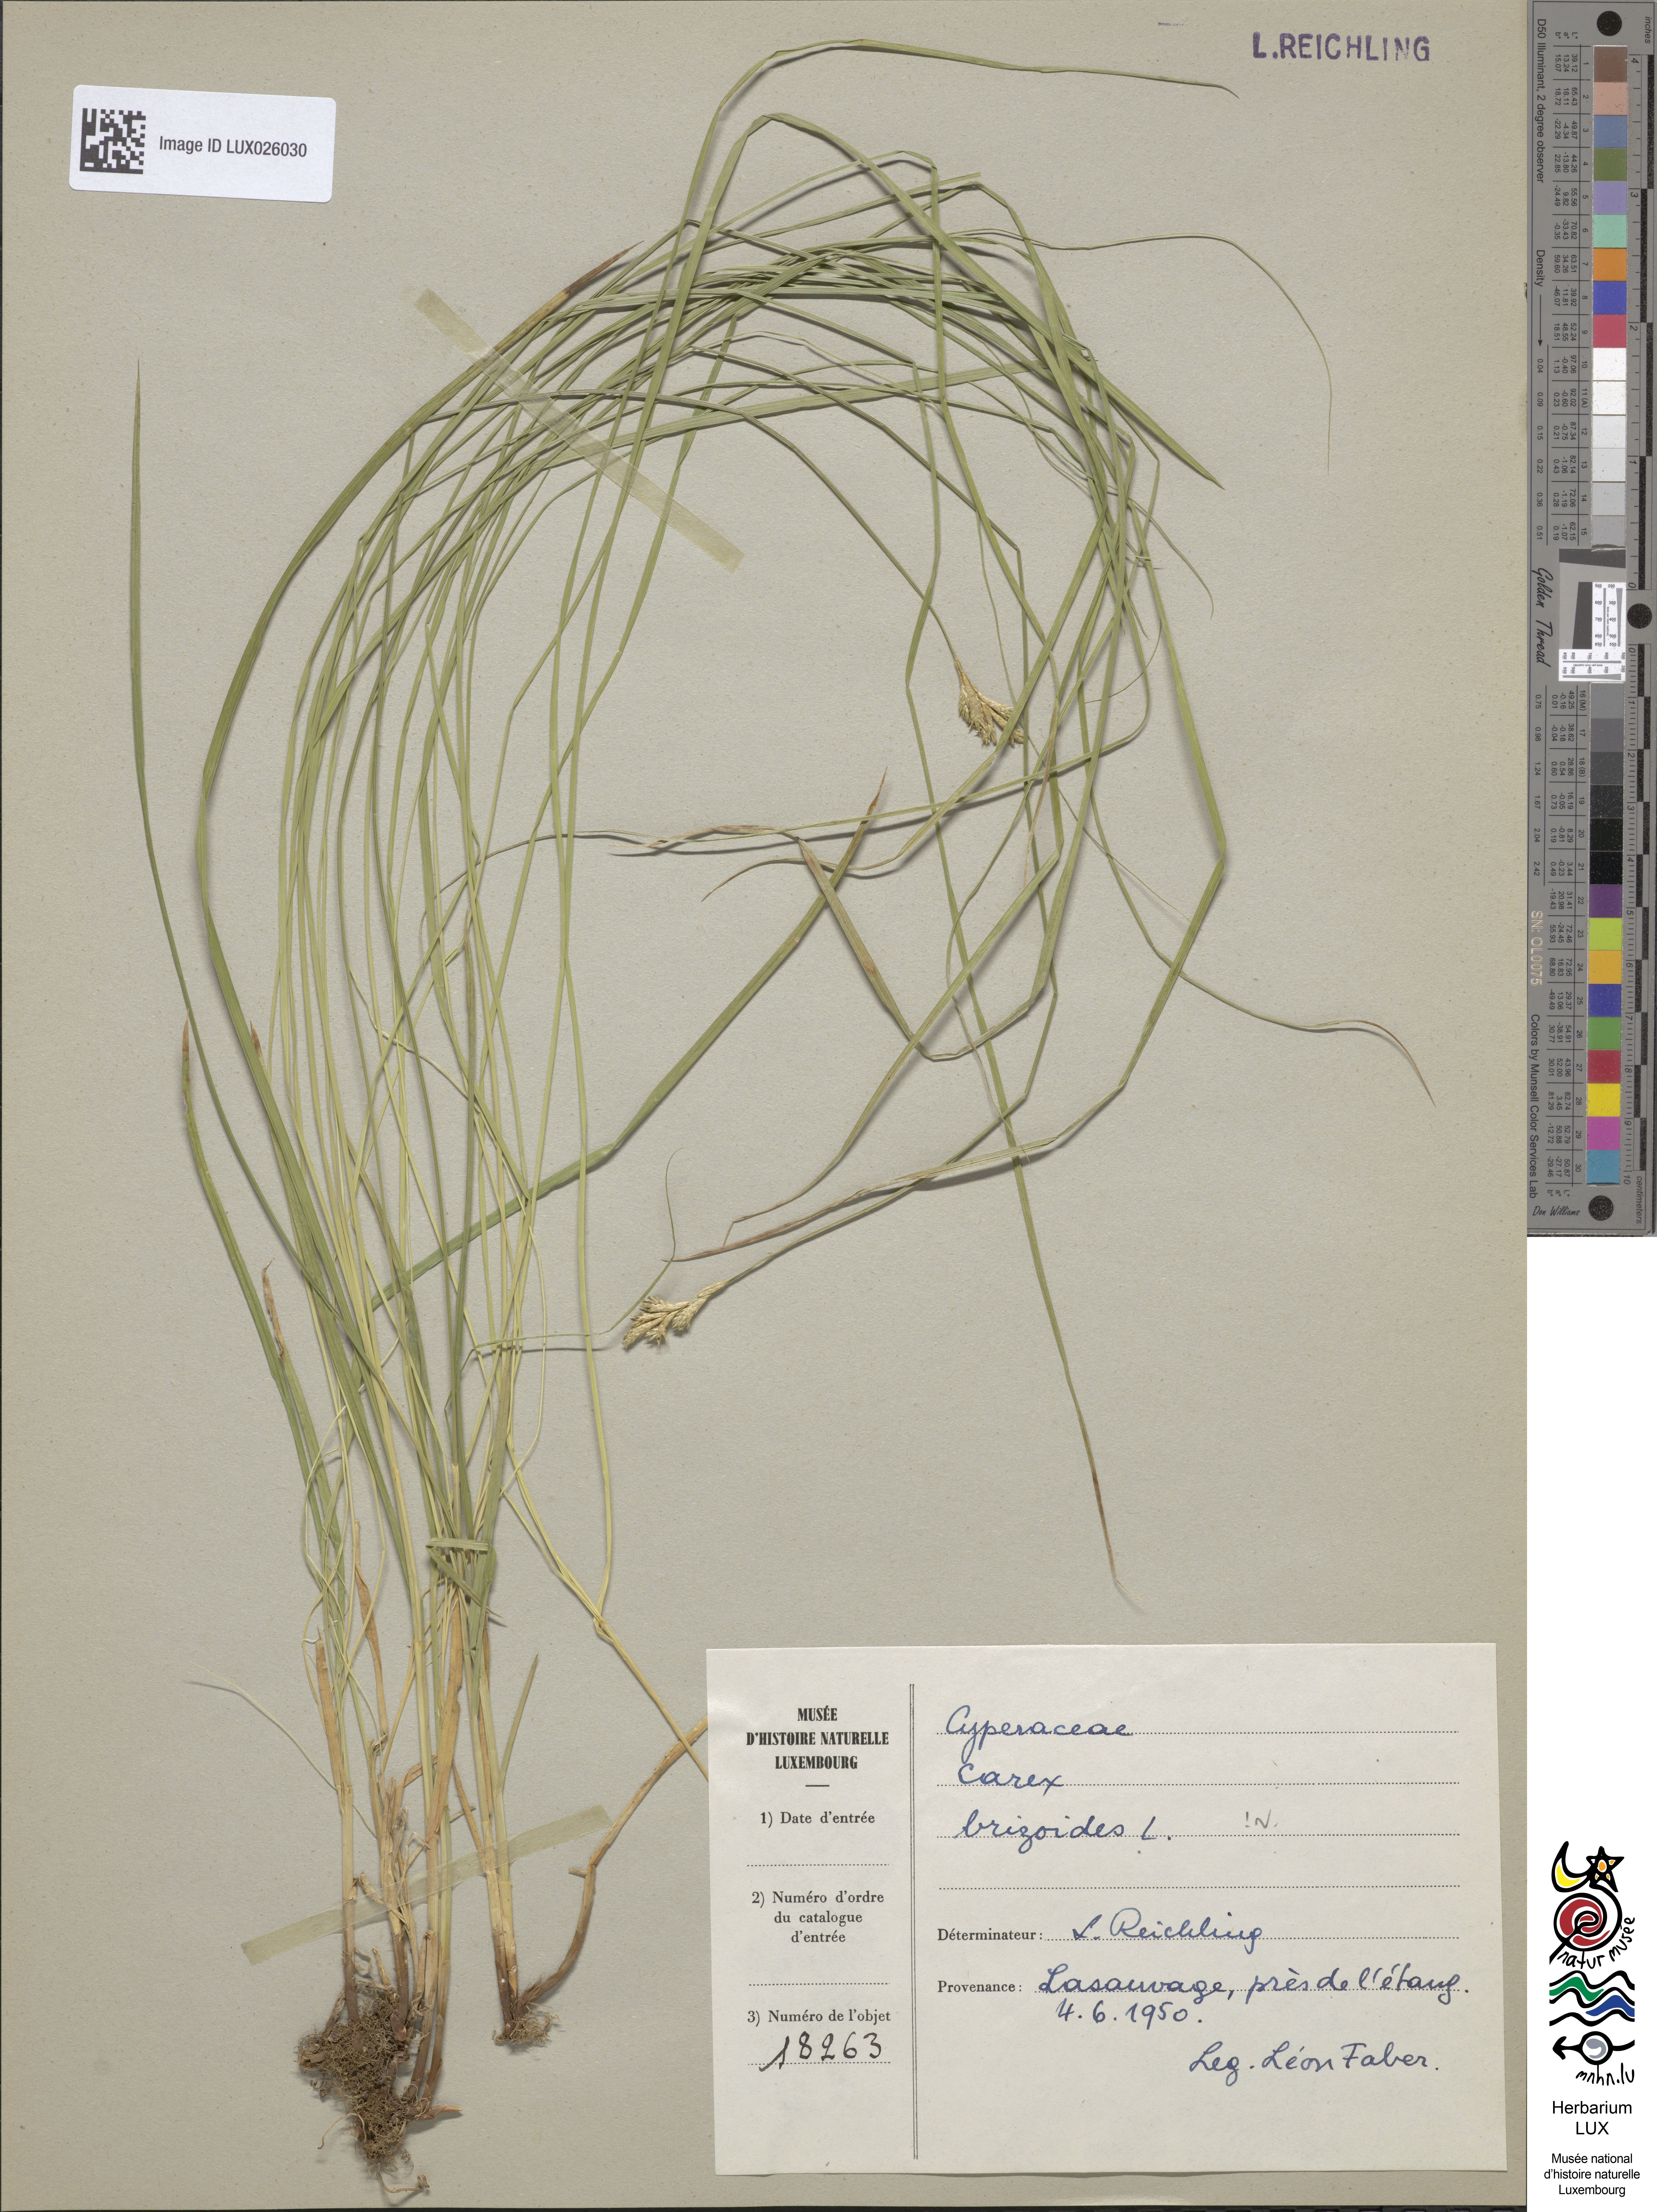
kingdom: Plantae
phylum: Tracheophyta
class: Liliopsida
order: Poales
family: Cyperaceae
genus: Carex
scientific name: Carex brizoides
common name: Quaking-grass sedge
